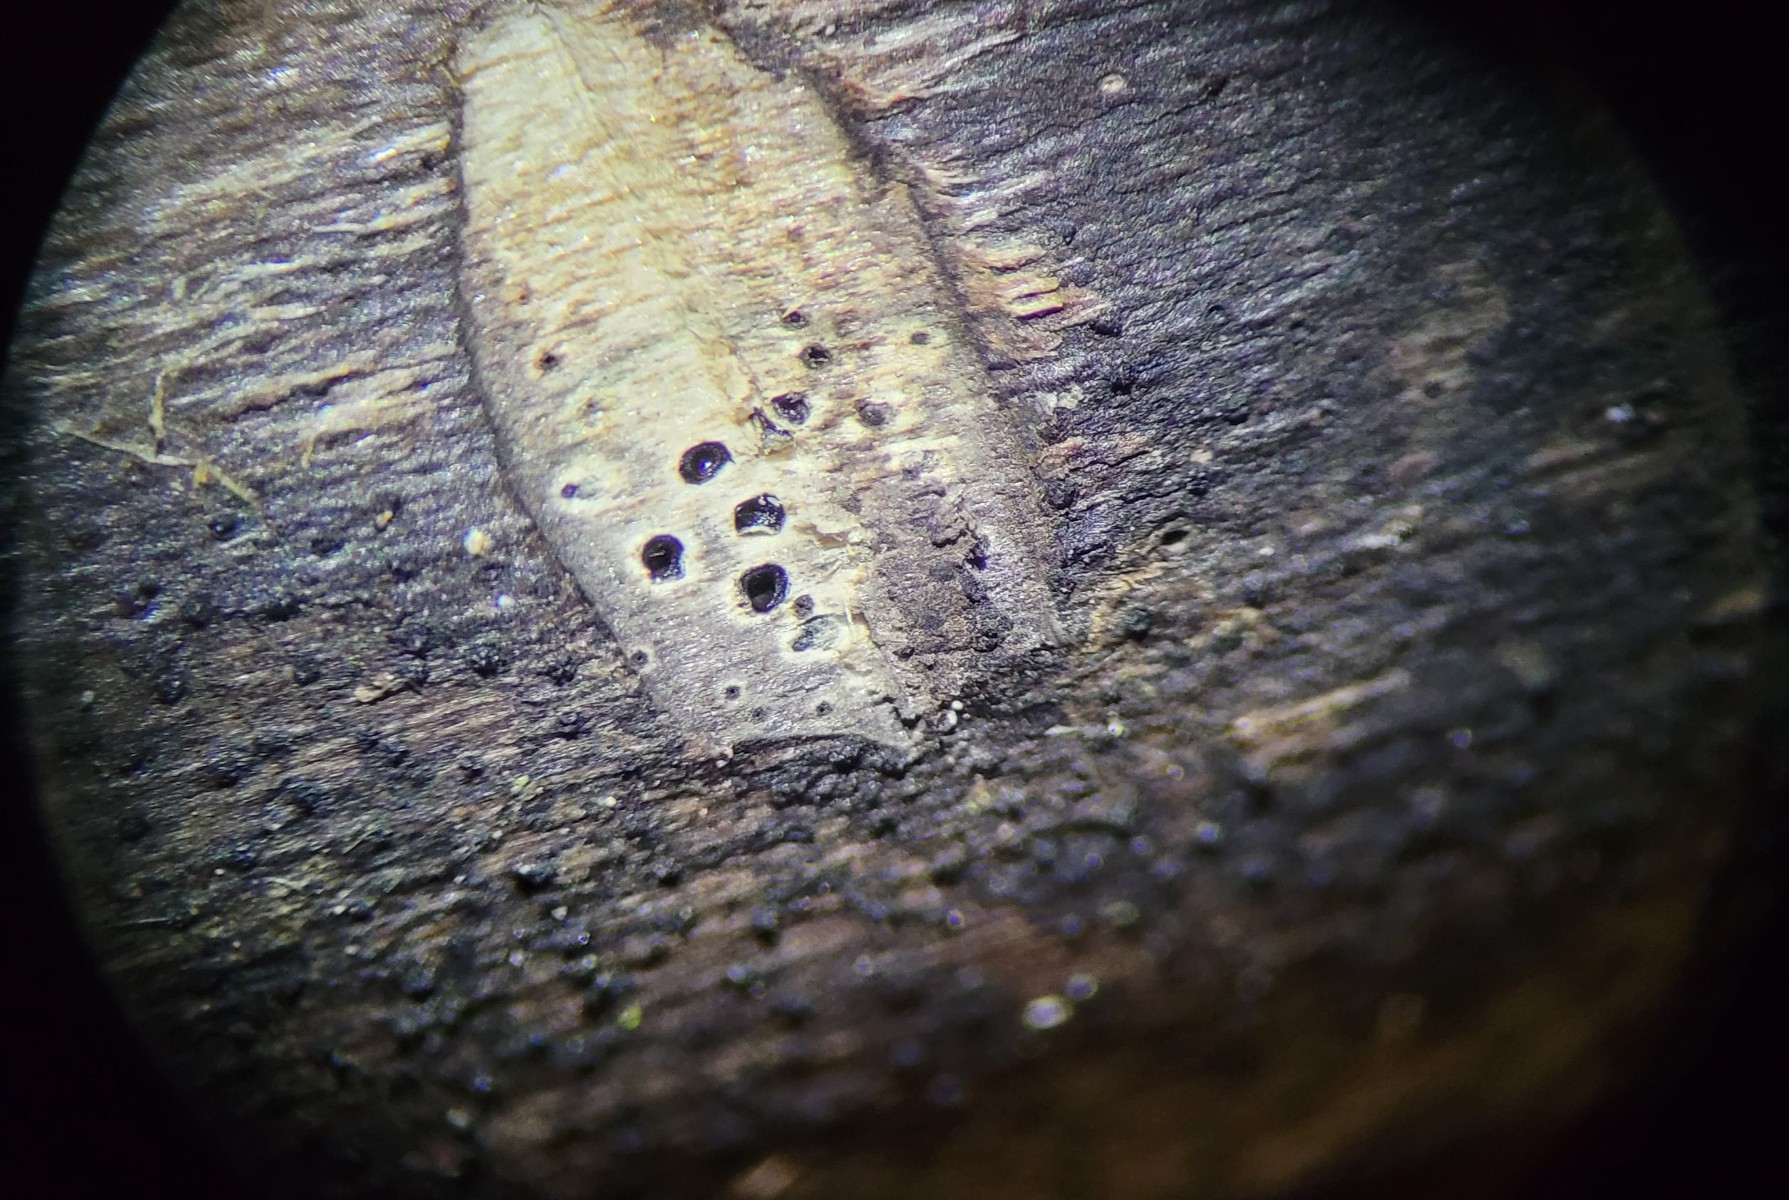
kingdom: Fungi
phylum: Ascomycota
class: Sordariomycetes
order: Xylariales
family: Diatrypaceae
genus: Eutypa
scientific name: Eutypa maura
